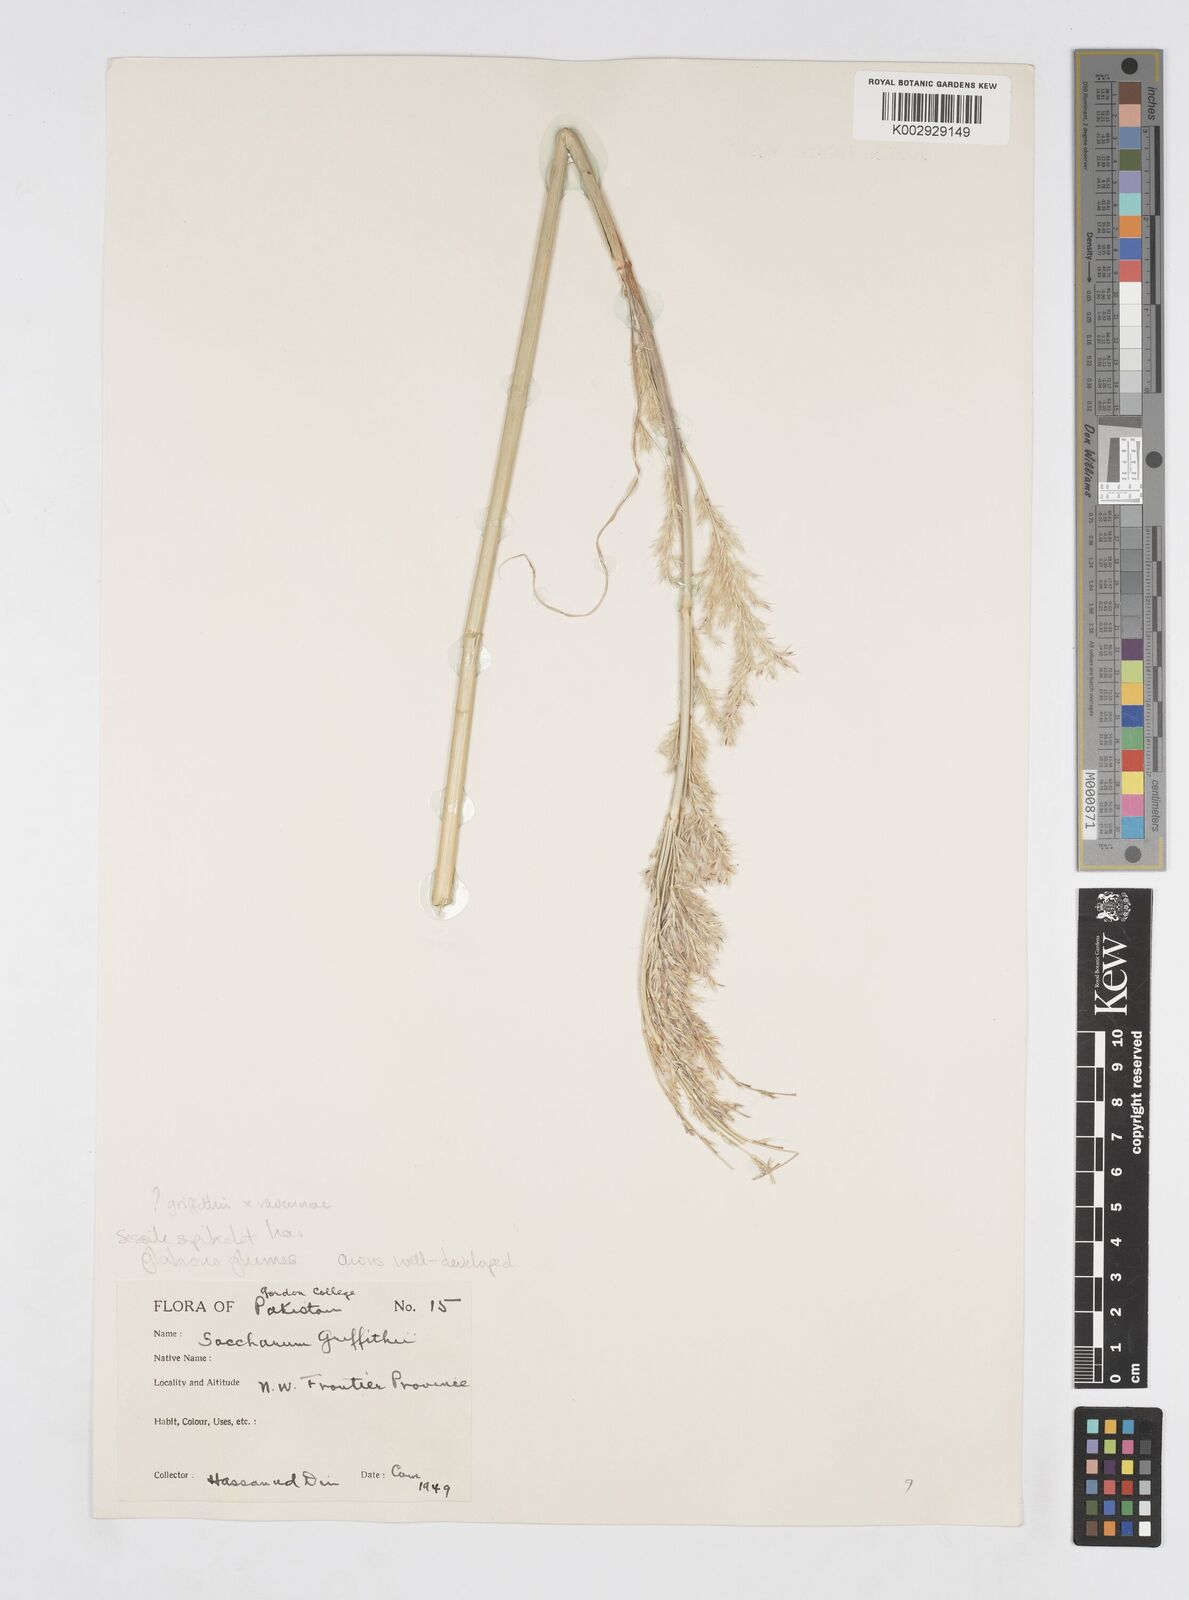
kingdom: Plantae
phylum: Tracheophyta
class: Liliopsida
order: Poales
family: Poaceae
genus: Saccharum
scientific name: Saccharum
